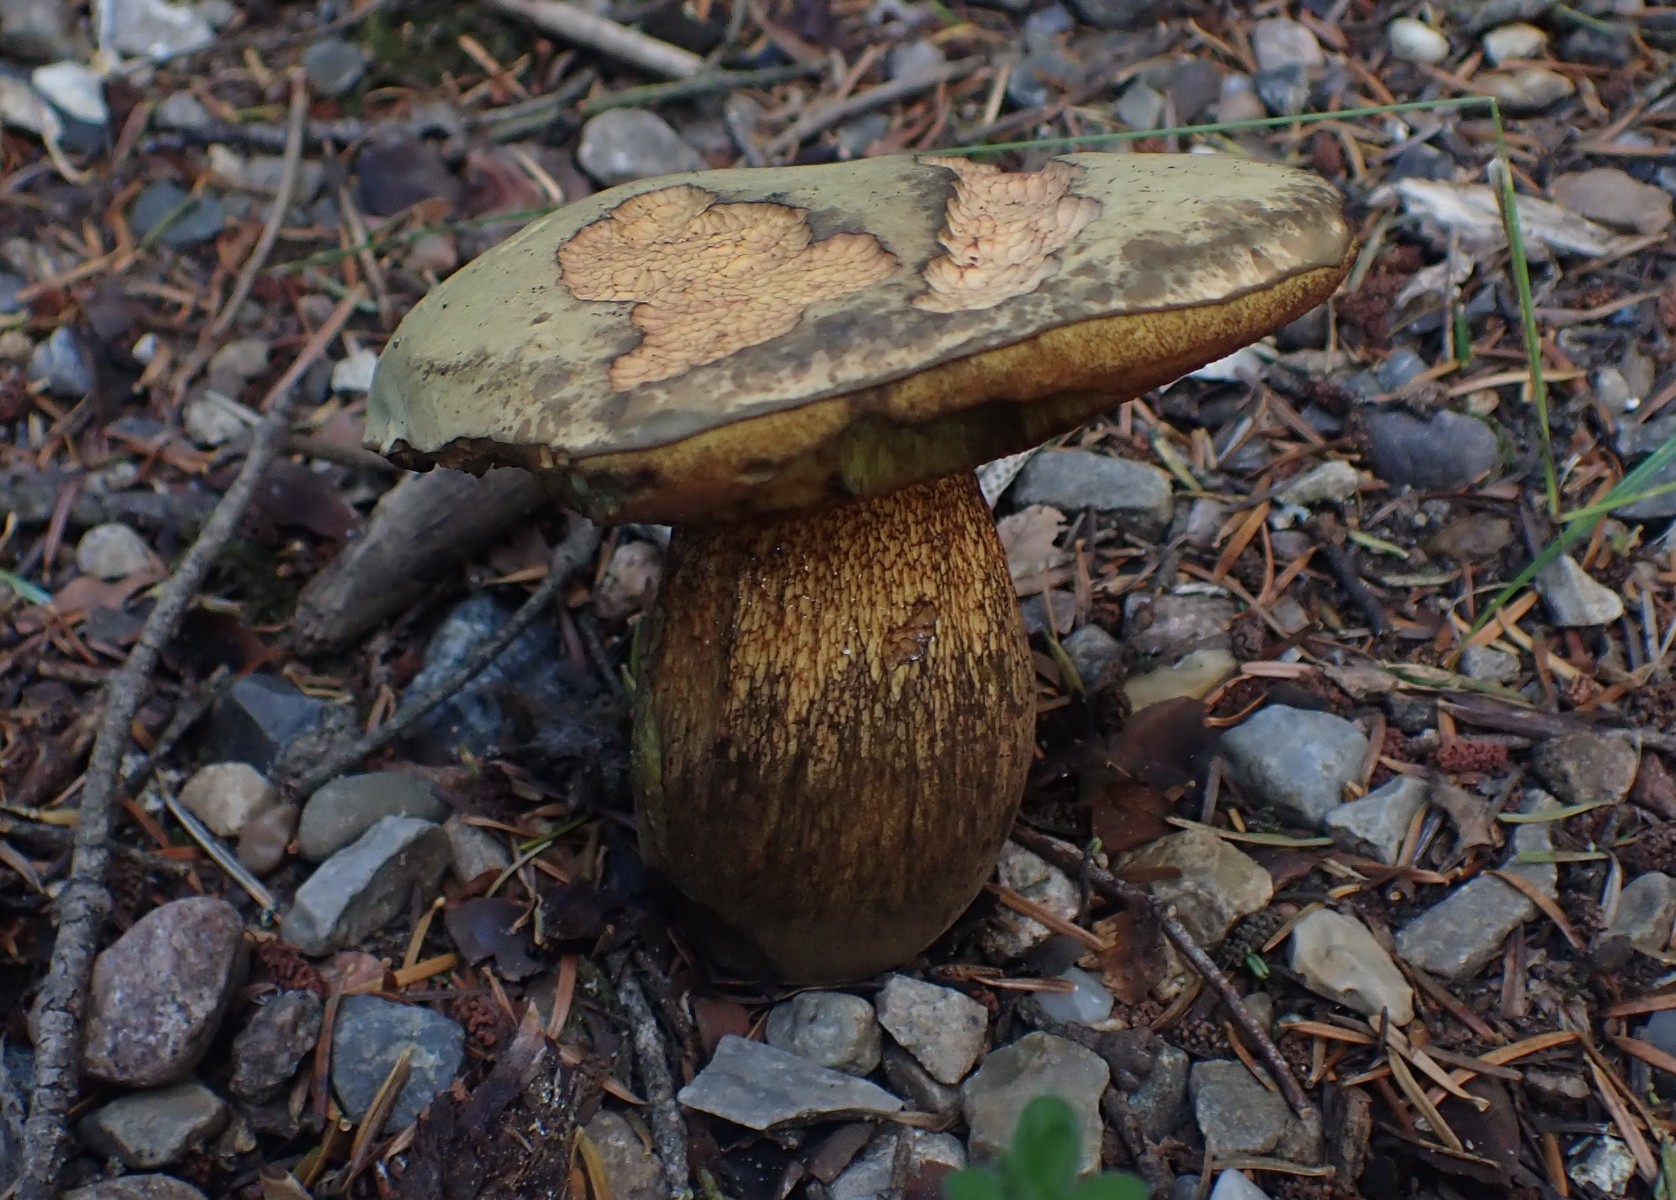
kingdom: Fungi
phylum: Basidiomycota
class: Agaricomycetes
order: Boletales
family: Boletaceae
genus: Suillellus
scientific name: Suillellus luridus
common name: netstokket indigorørhat
